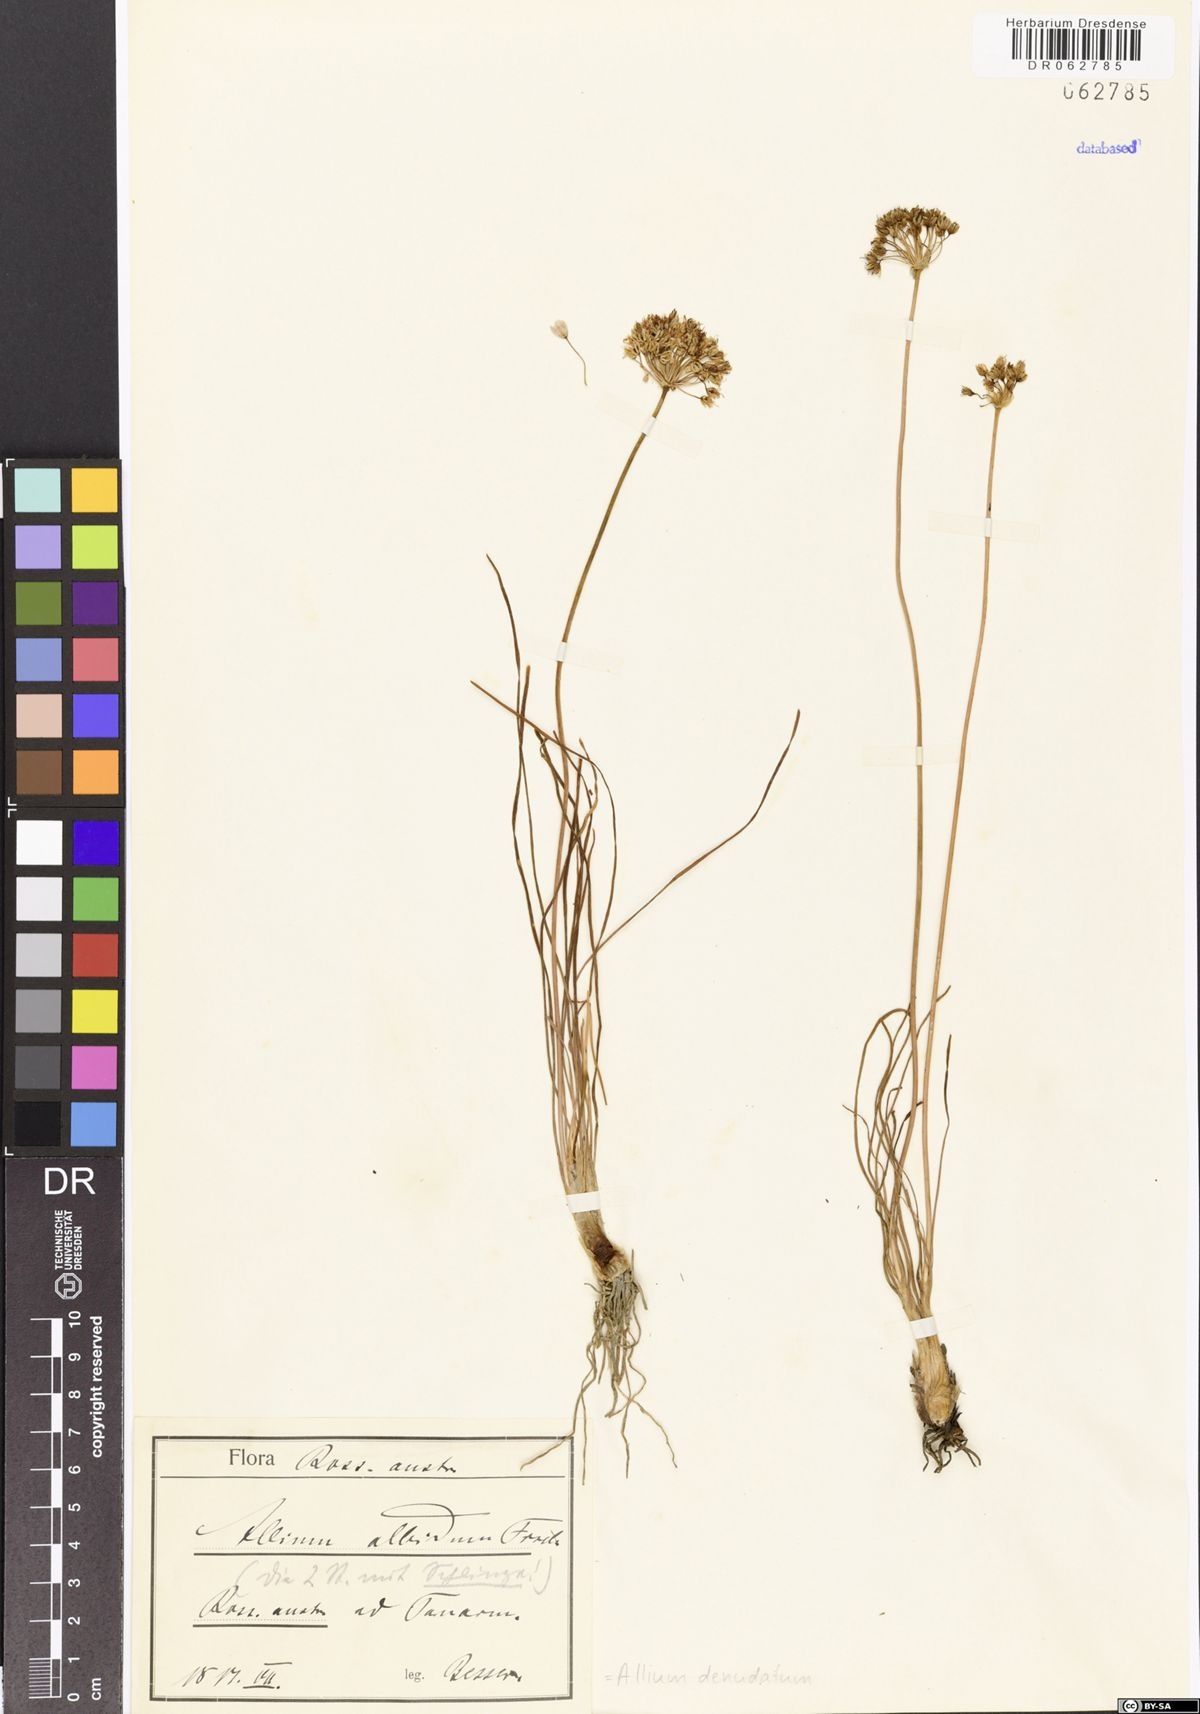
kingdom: Plantae
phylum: Tracheophyta
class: Liliopsida
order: Asparagales
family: Amaryllidaceae
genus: Allium
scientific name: Allium denudatum
